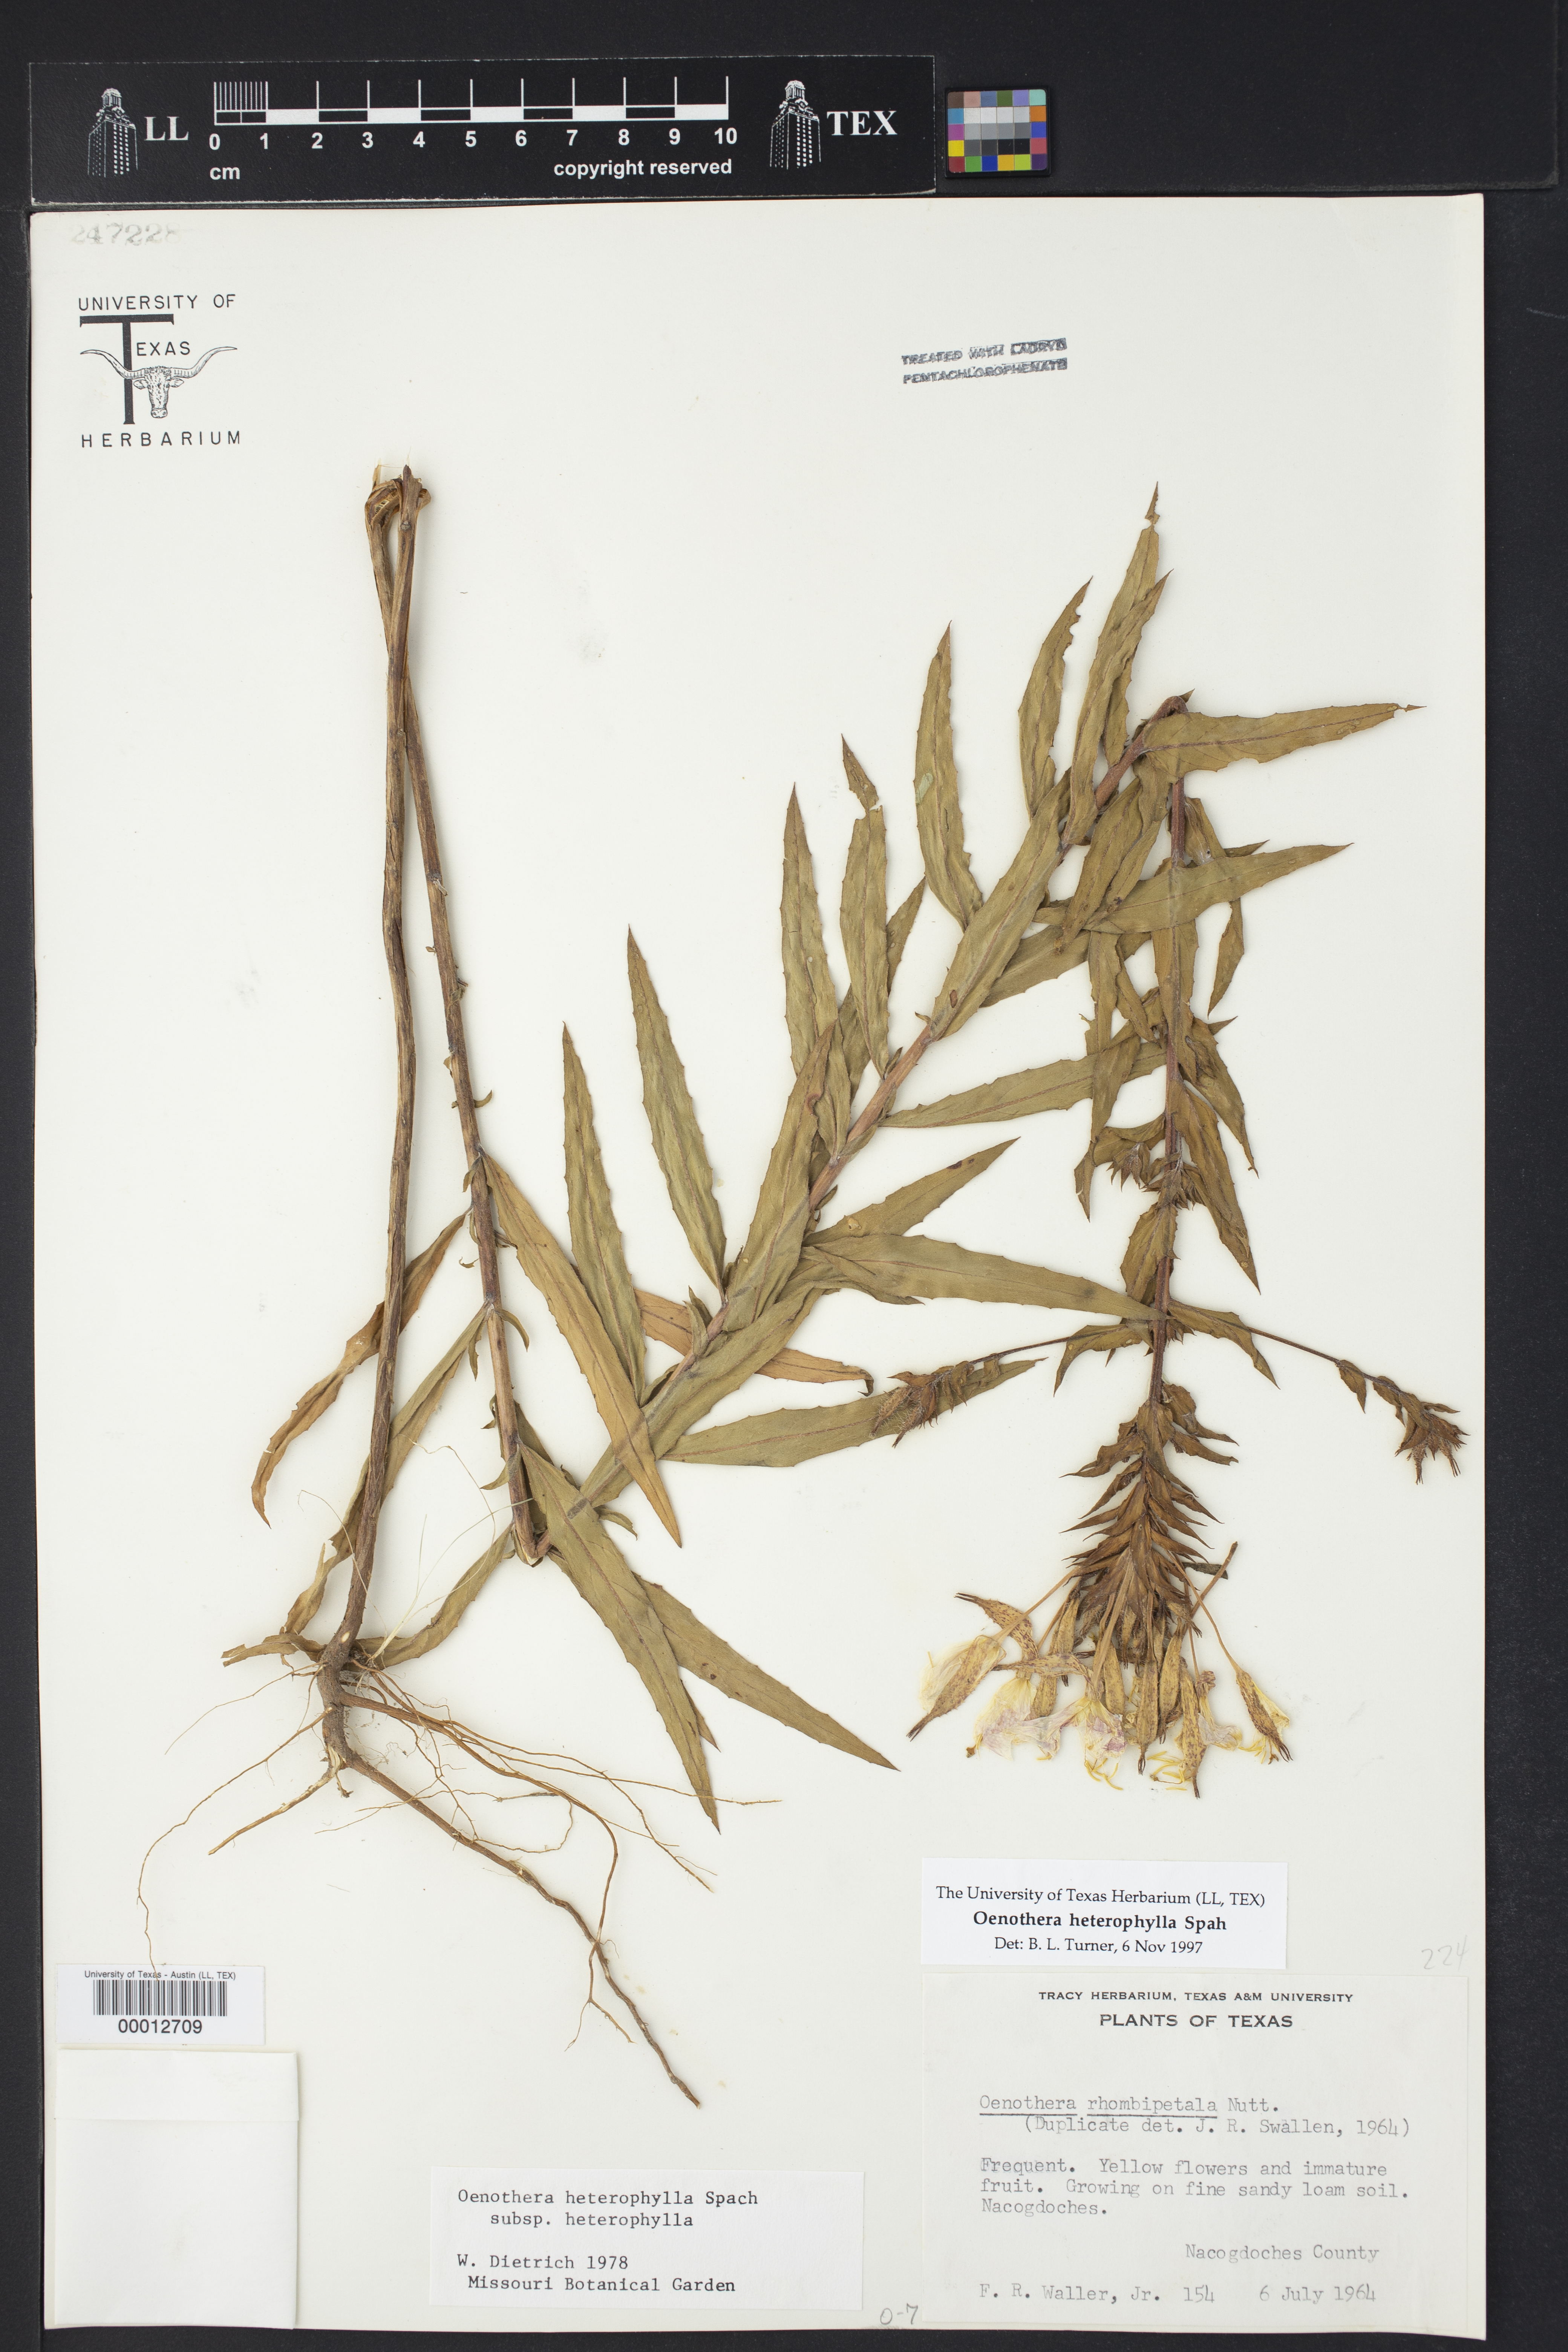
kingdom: Plantae
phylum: Tracheophyta
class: Magnoliopsida
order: Myrtales
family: Onagraceae
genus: Oenothera
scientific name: Oenothera heterophylla
